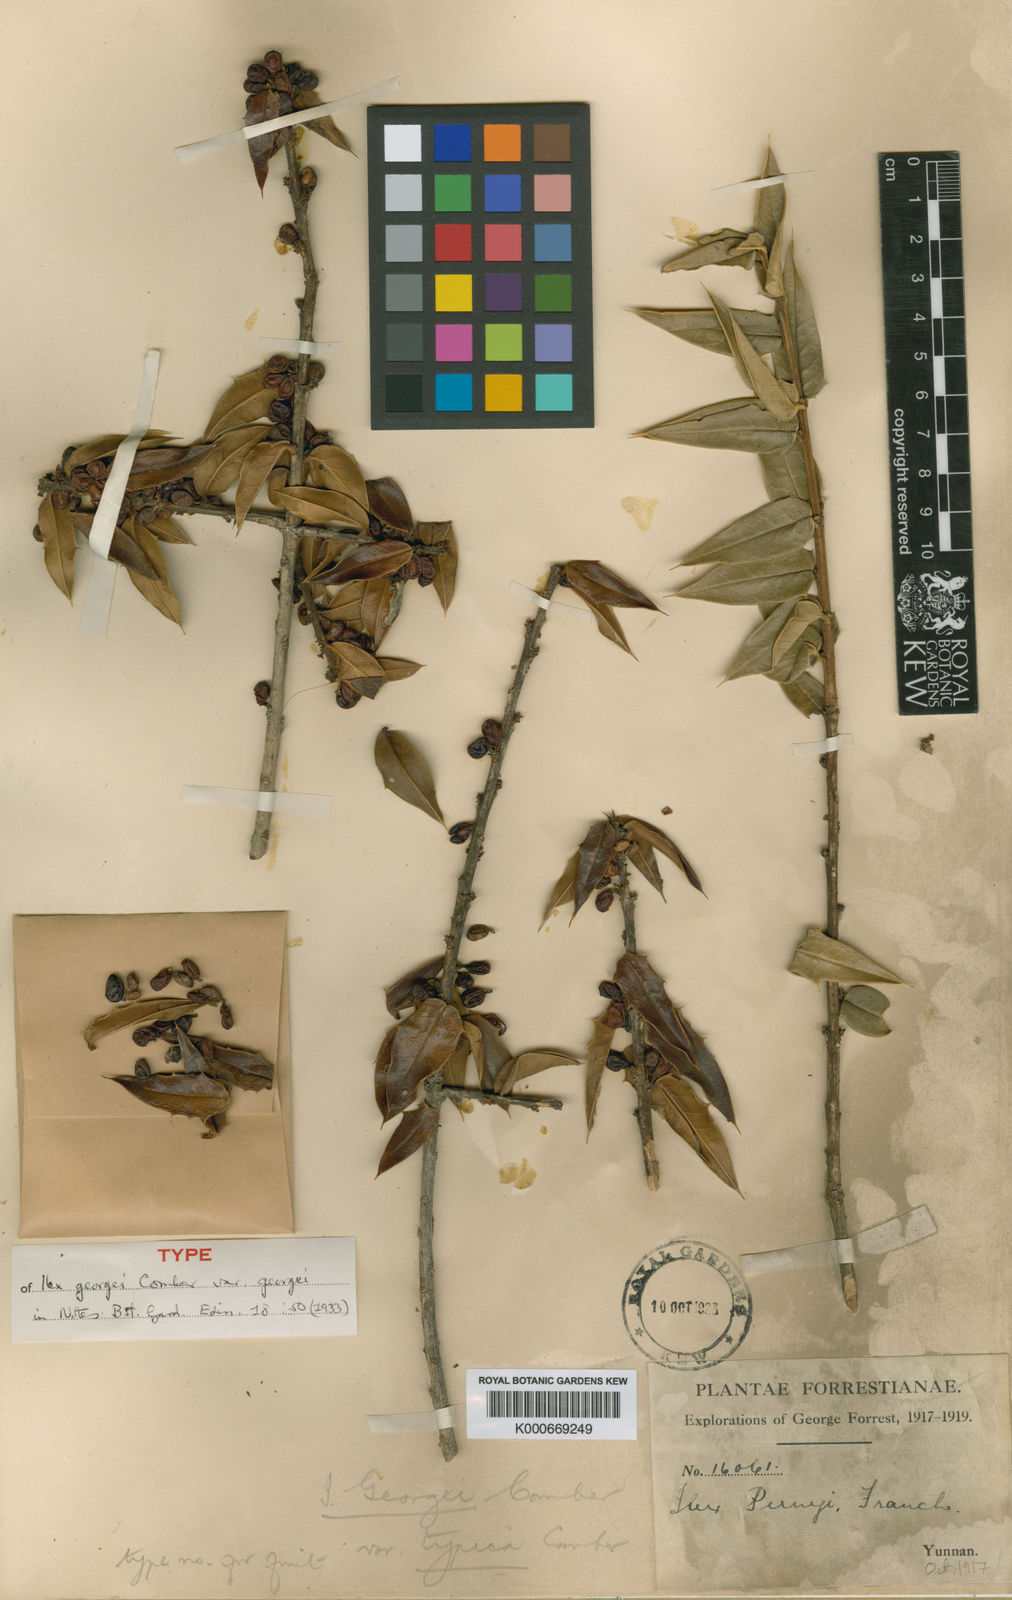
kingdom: Plantae
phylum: Tracheophyta
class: Magnoliopsida
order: Aquifoliales
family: Aquifoliaceae
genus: Ilex
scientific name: Ilex georgei
